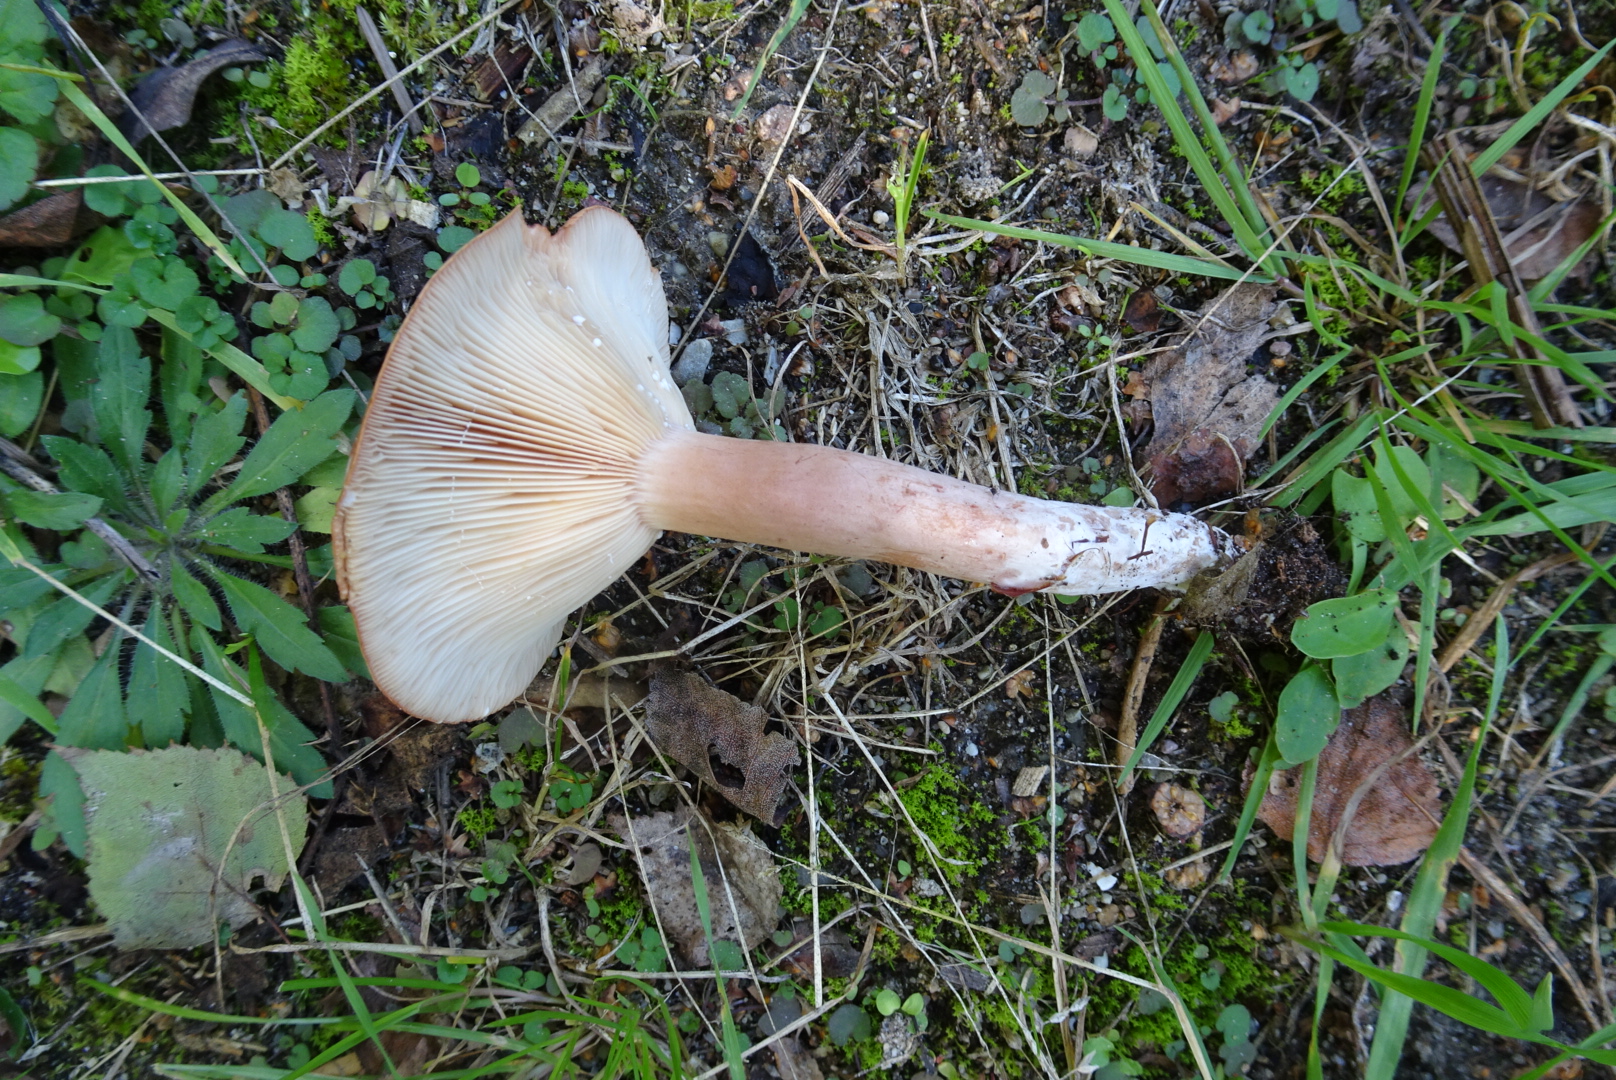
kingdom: Fungi
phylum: Basidiomycota
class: Agaricomycetes
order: Russulales
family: Russulaceae
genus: Lactarius
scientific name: Lactarius rufus
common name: rødbrun mælkehat
